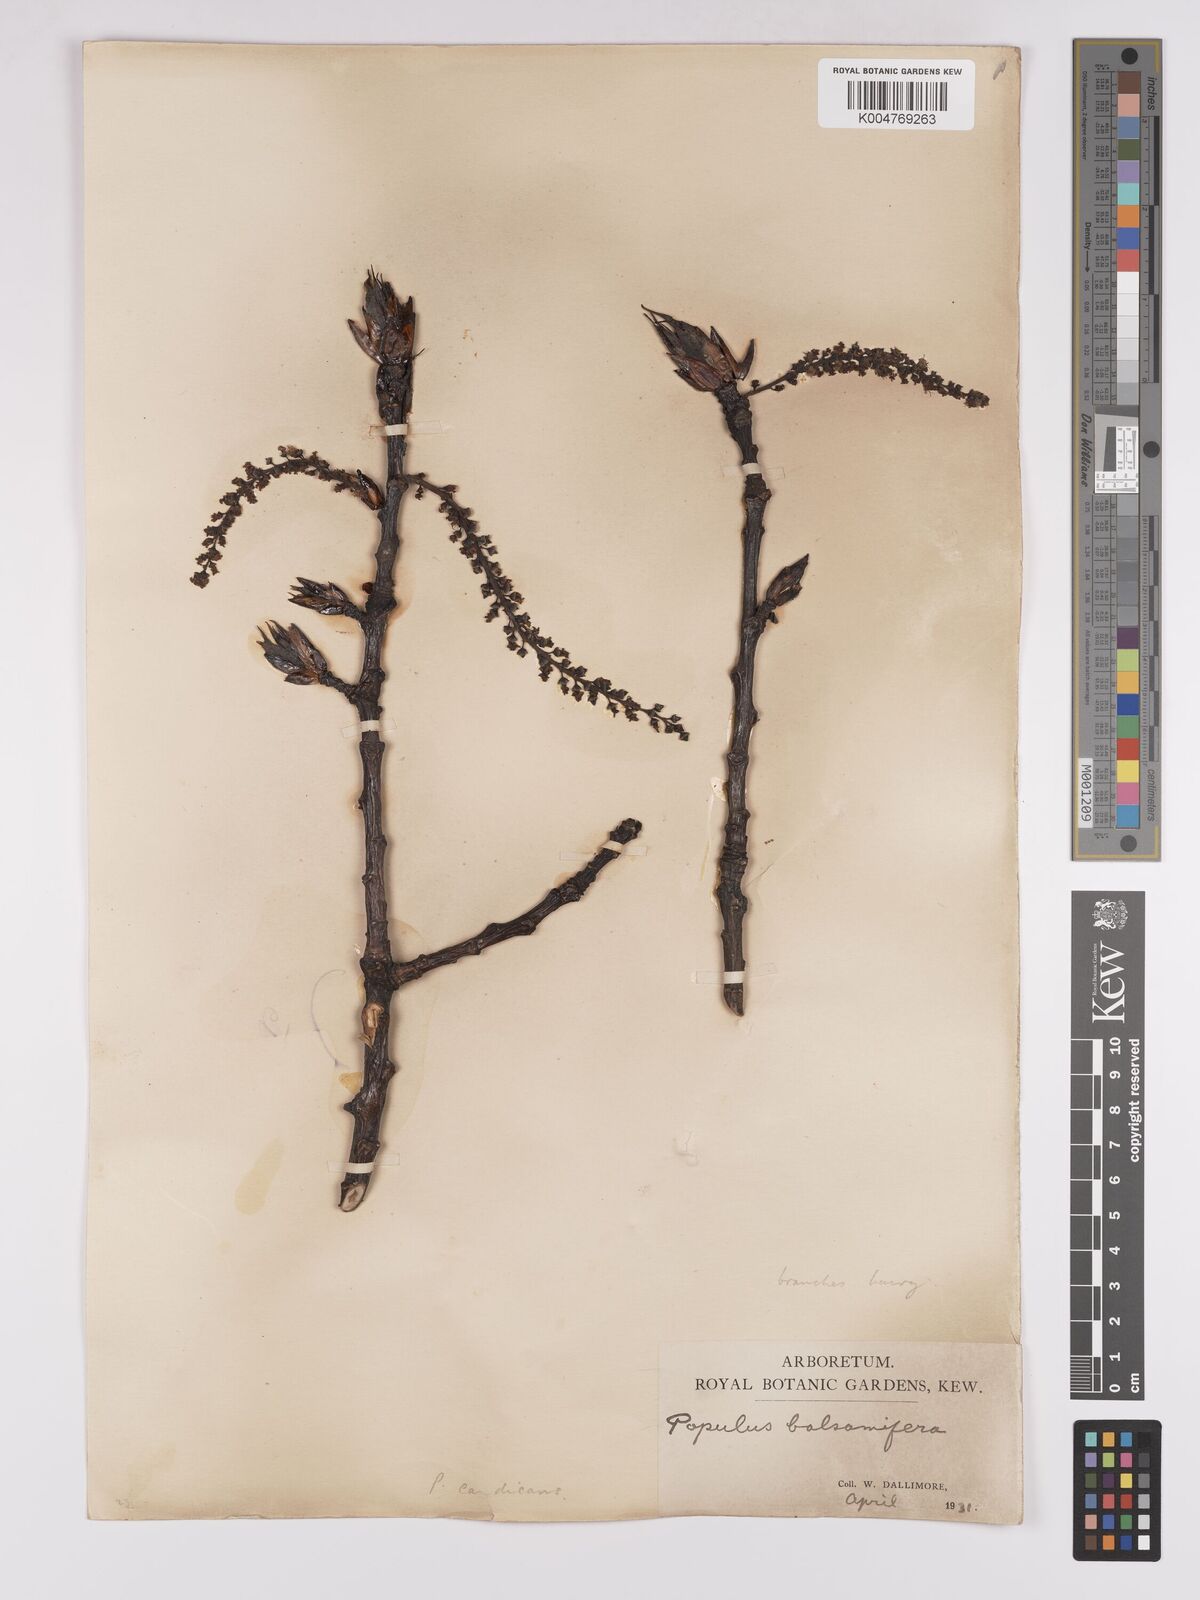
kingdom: Plantae
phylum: Tracheophyta
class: Magnoliopsida
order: Malpighiales
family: Salicaceae
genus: Populus
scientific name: Populus jackii
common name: Balm-of-gilead
